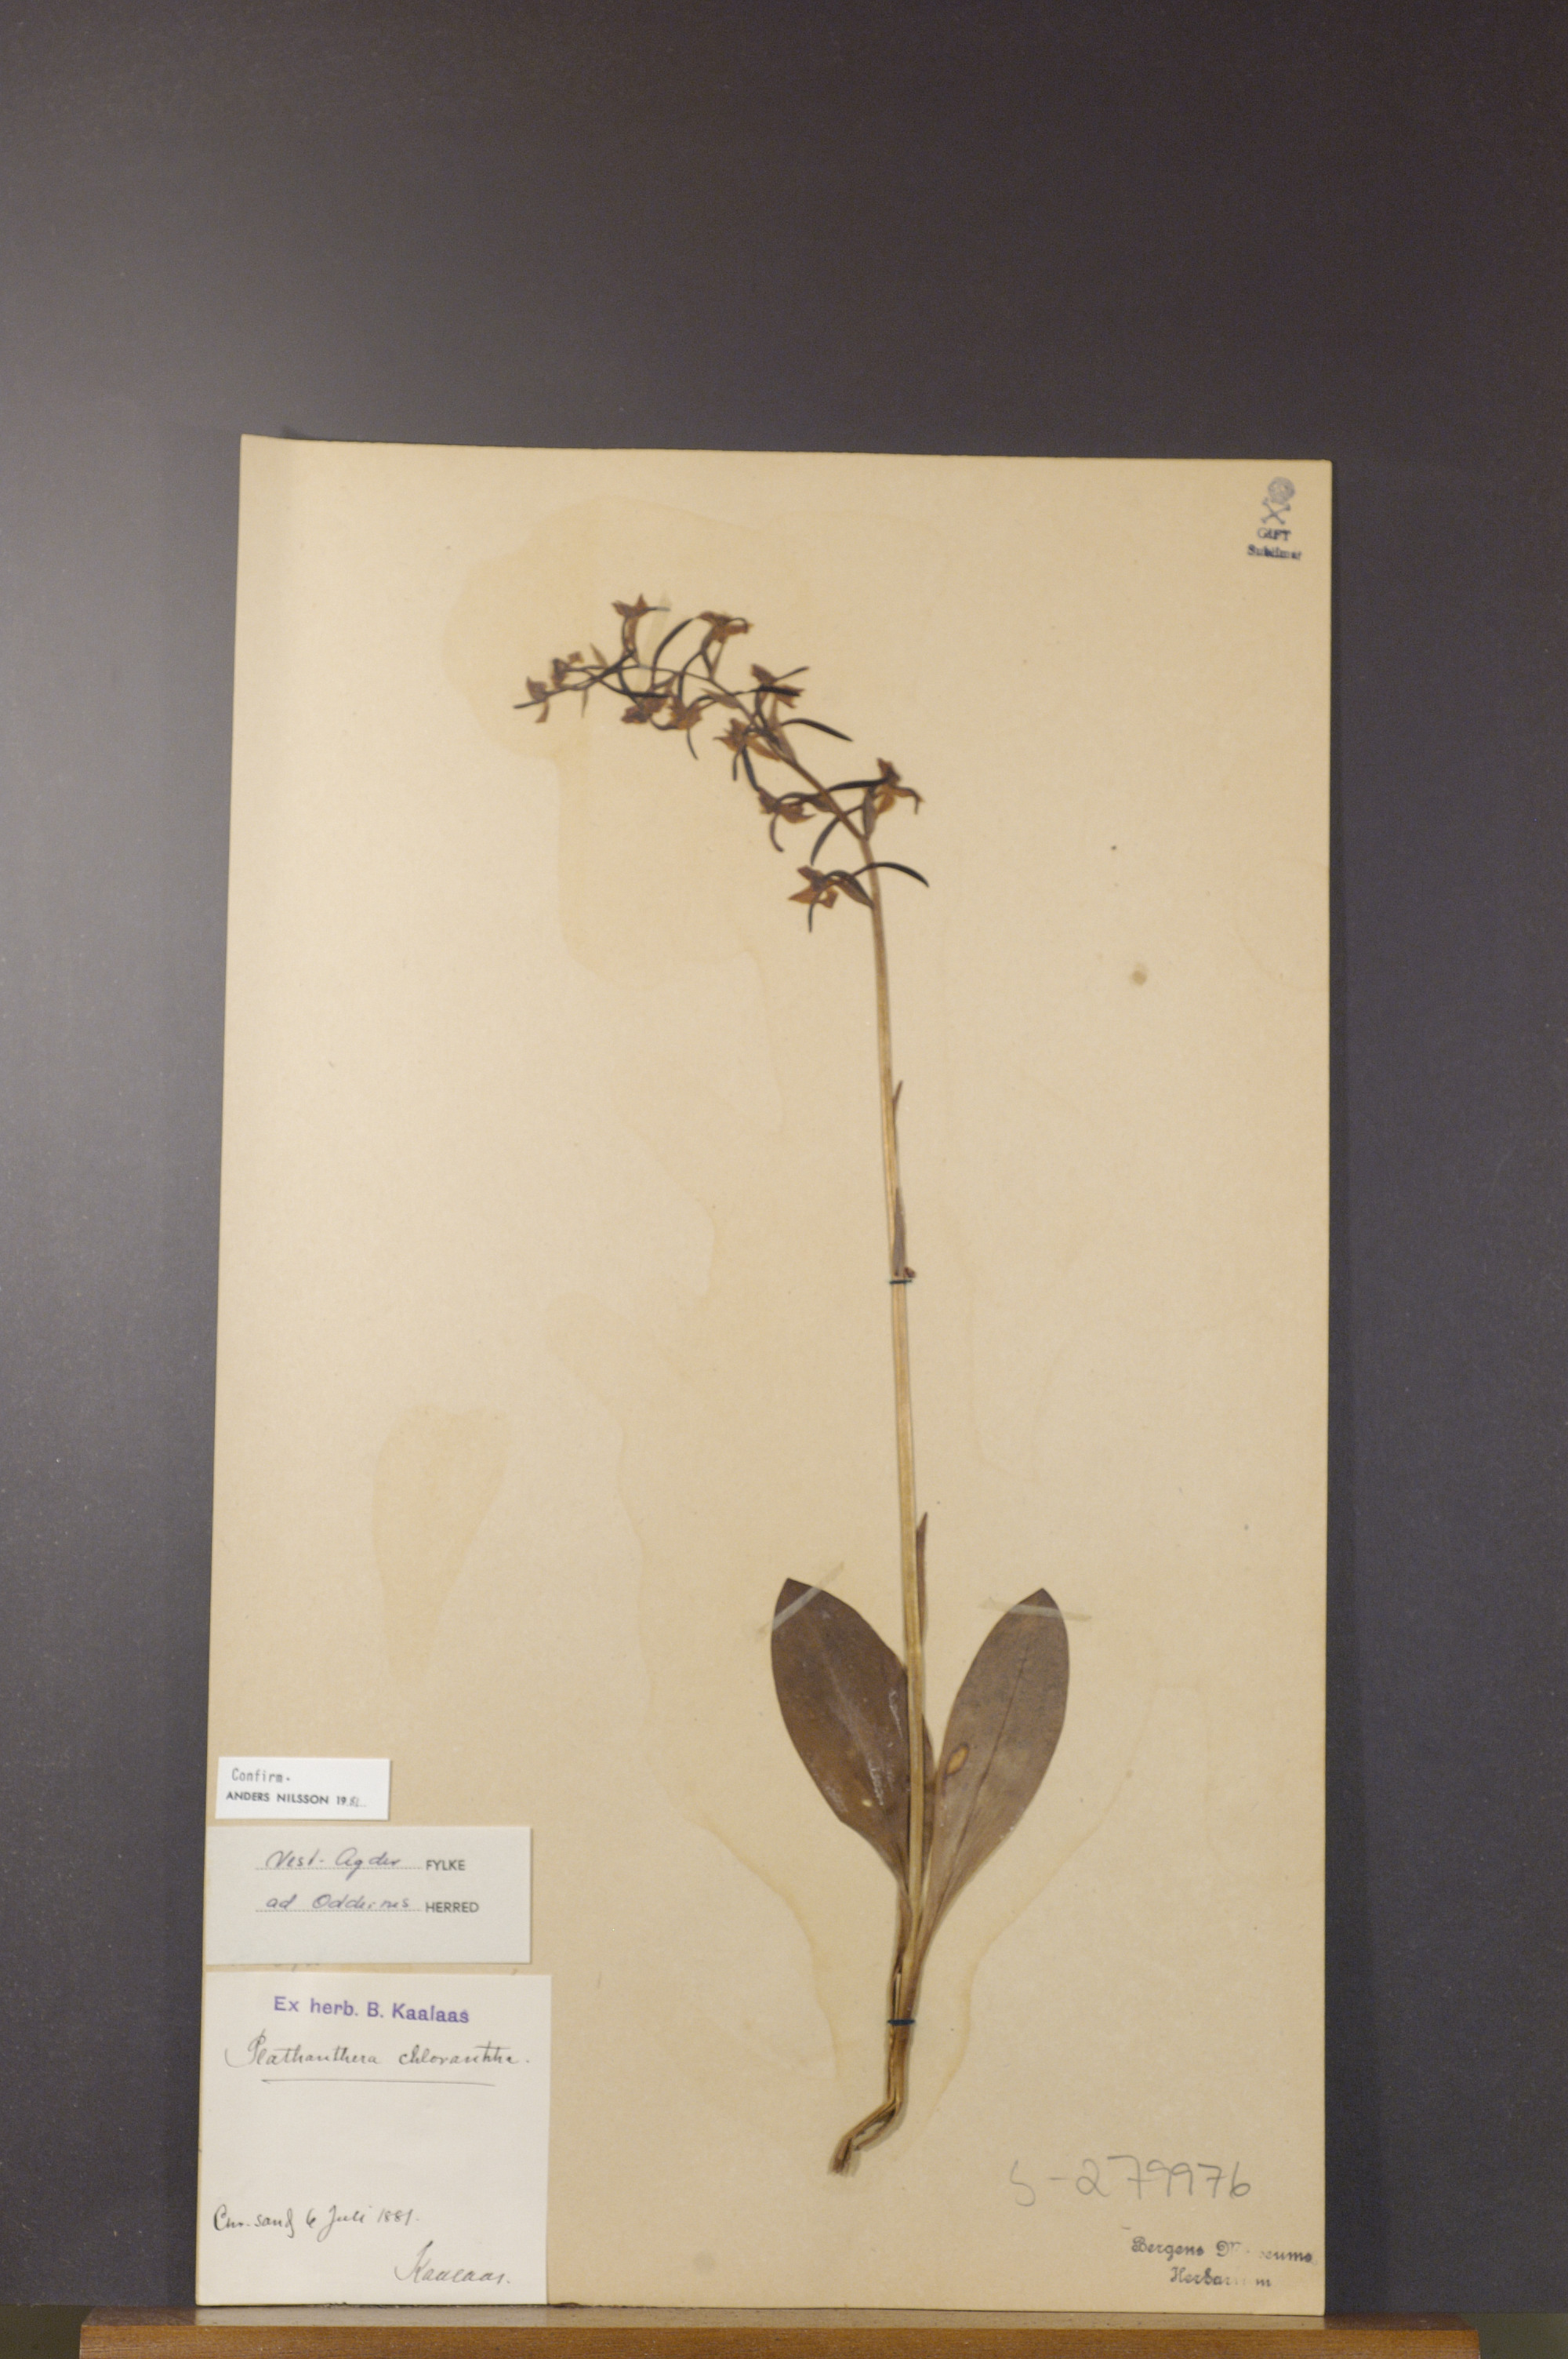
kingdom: Plantae
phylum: Tracheophyta
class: Liliopsida
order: Asparagales
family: Orchidaceae
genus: Platanthera
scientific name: Platanthera chlorantha
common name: Greater butterfly-orchid
